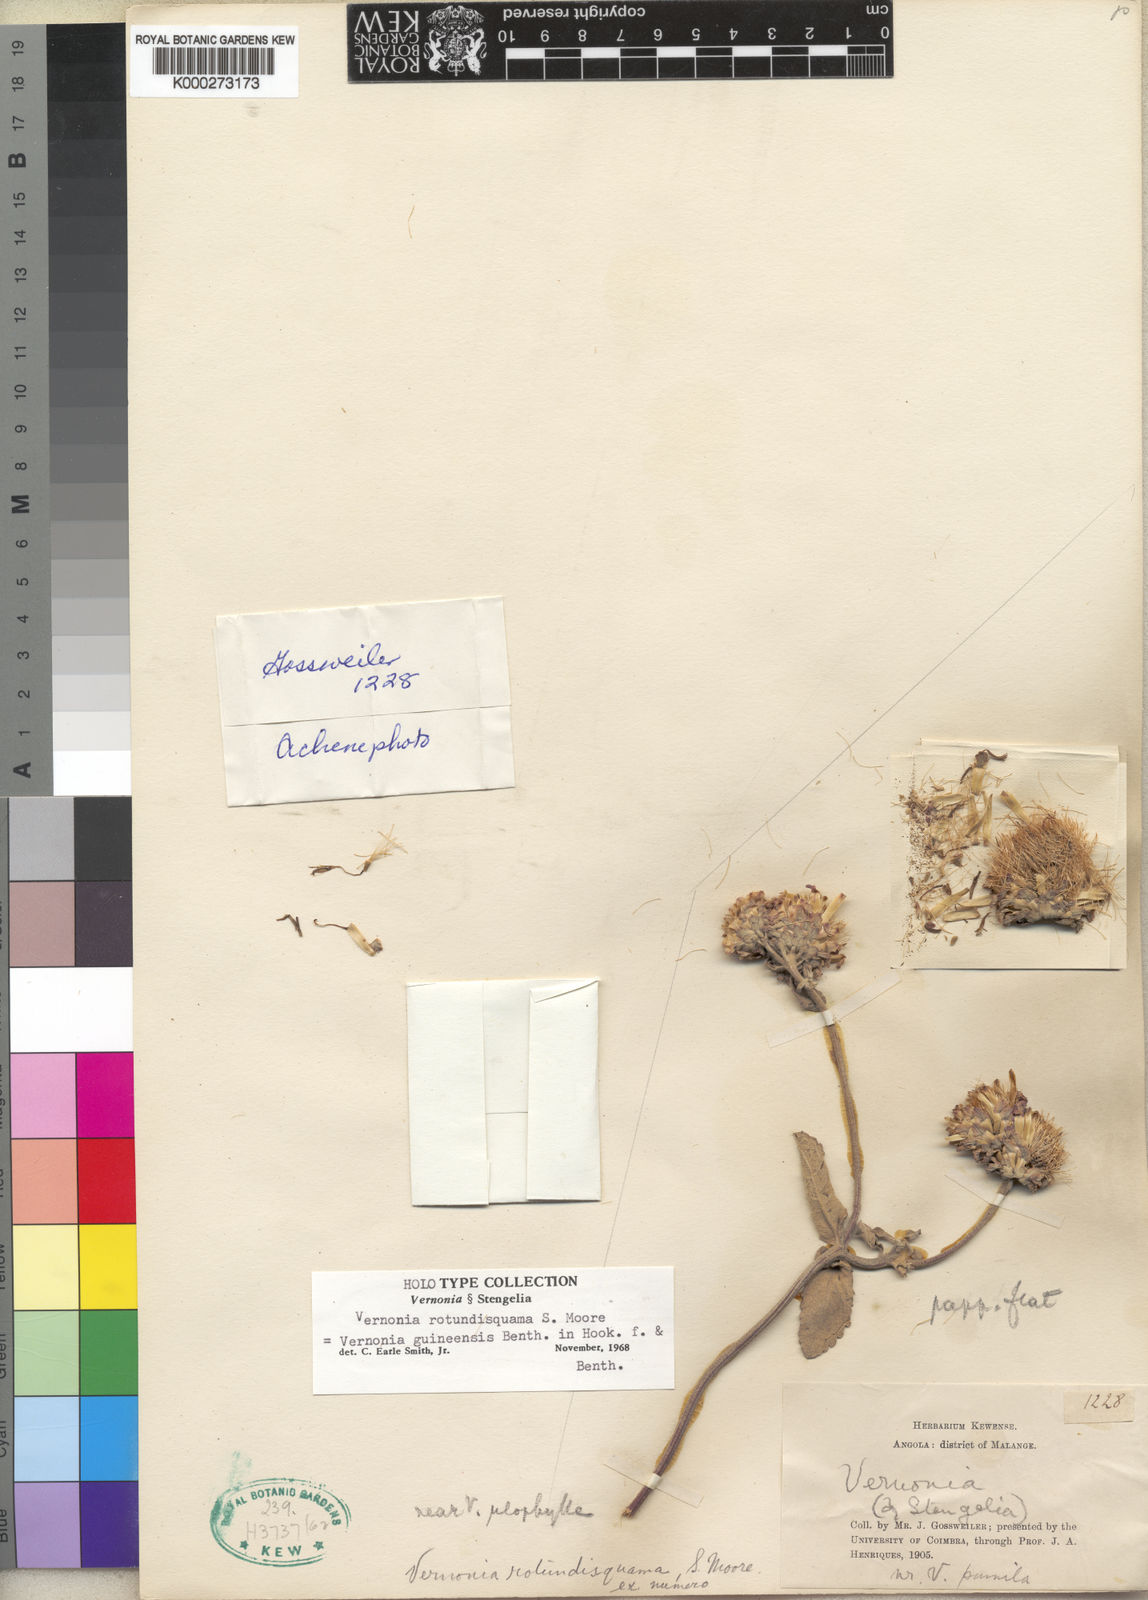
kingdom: Plantae
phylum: Tracheophyta
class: Magnoliopsida
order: Asterales
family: Asteraceae
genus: Baccharoides
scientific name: Baccharoides guineensis
